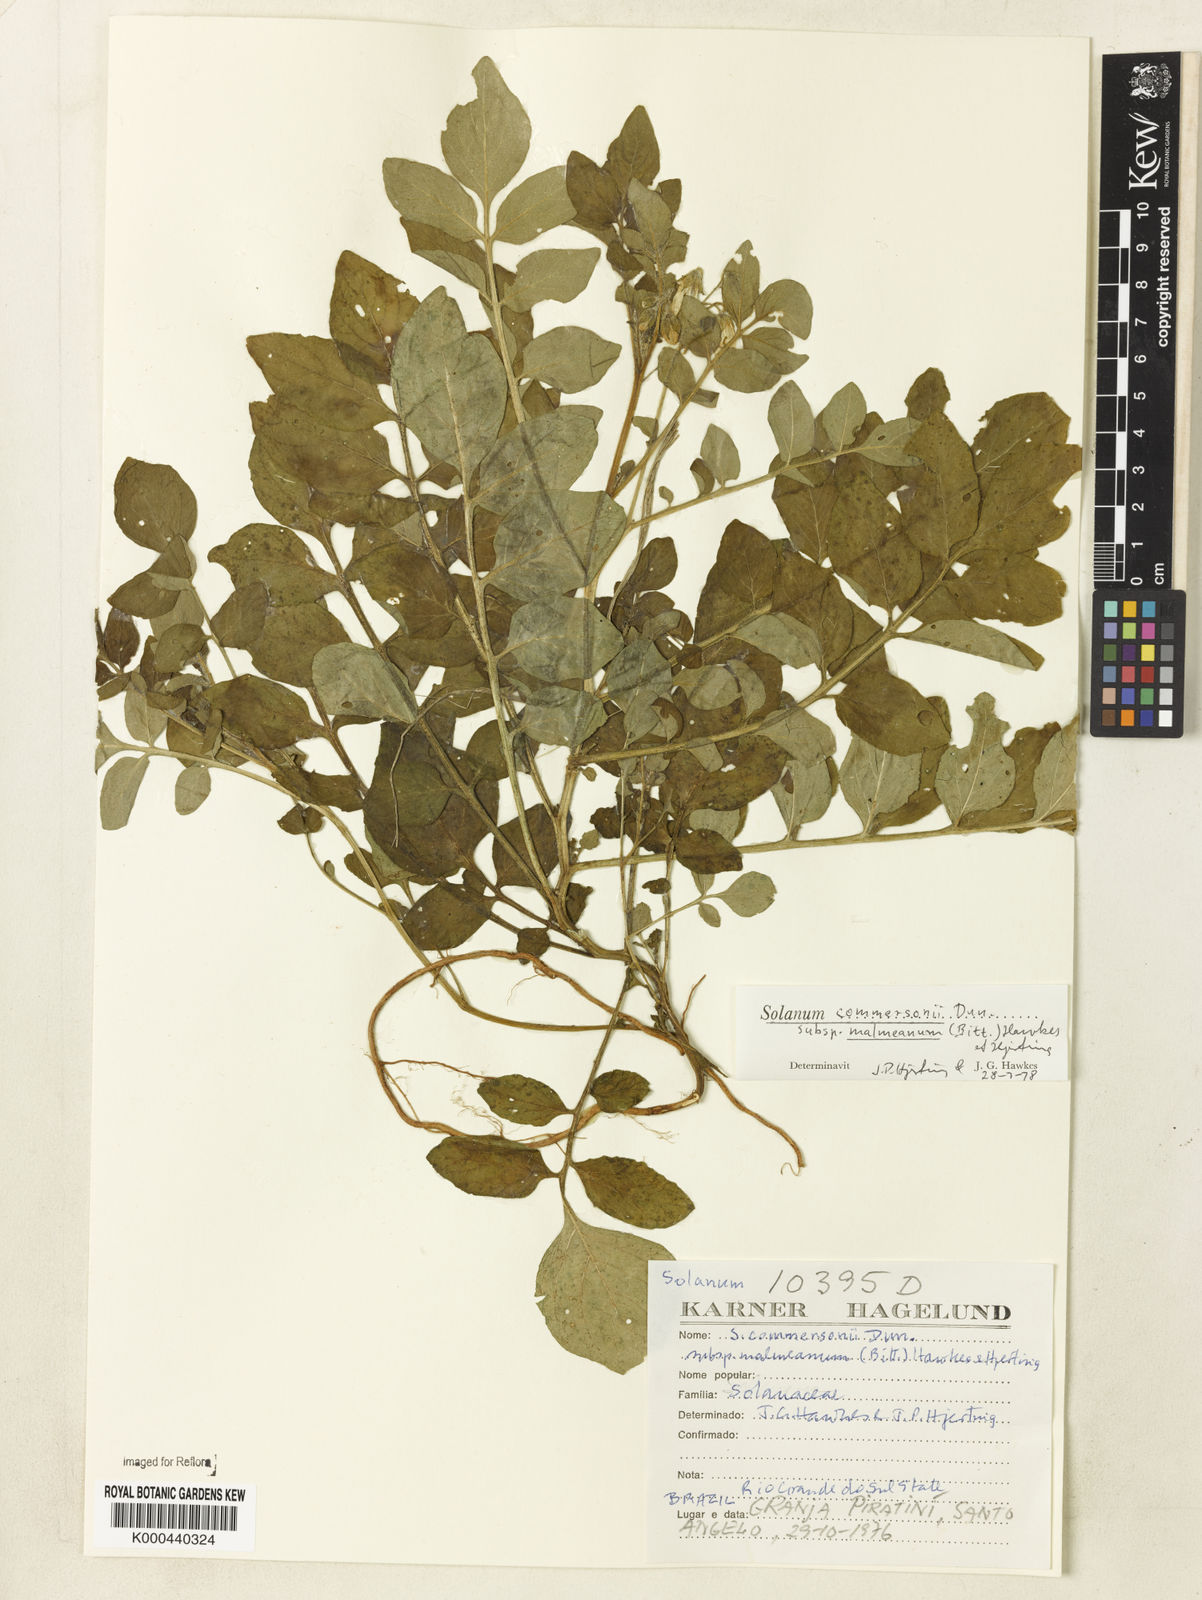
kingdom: Plantae
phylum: Tracheophyta
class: Magnoliopsida
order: Solanales
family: Solanaceae
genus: Solanum
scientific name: Solanum
